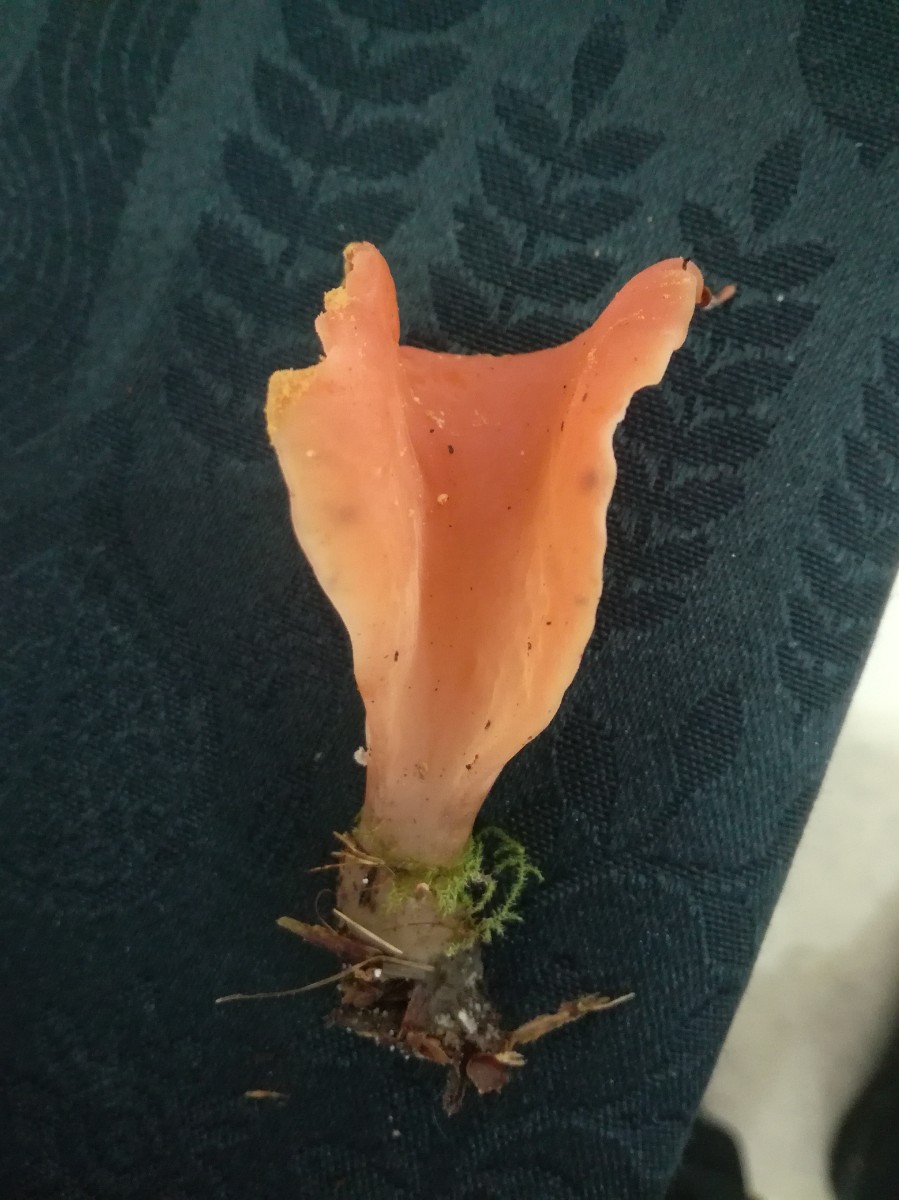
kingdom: Fungi
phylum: Basidiomycota
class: Agaricomycetes
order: Auriculariales
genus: Guepinia
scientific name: Guepinia helvelloides
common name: bævretunge
